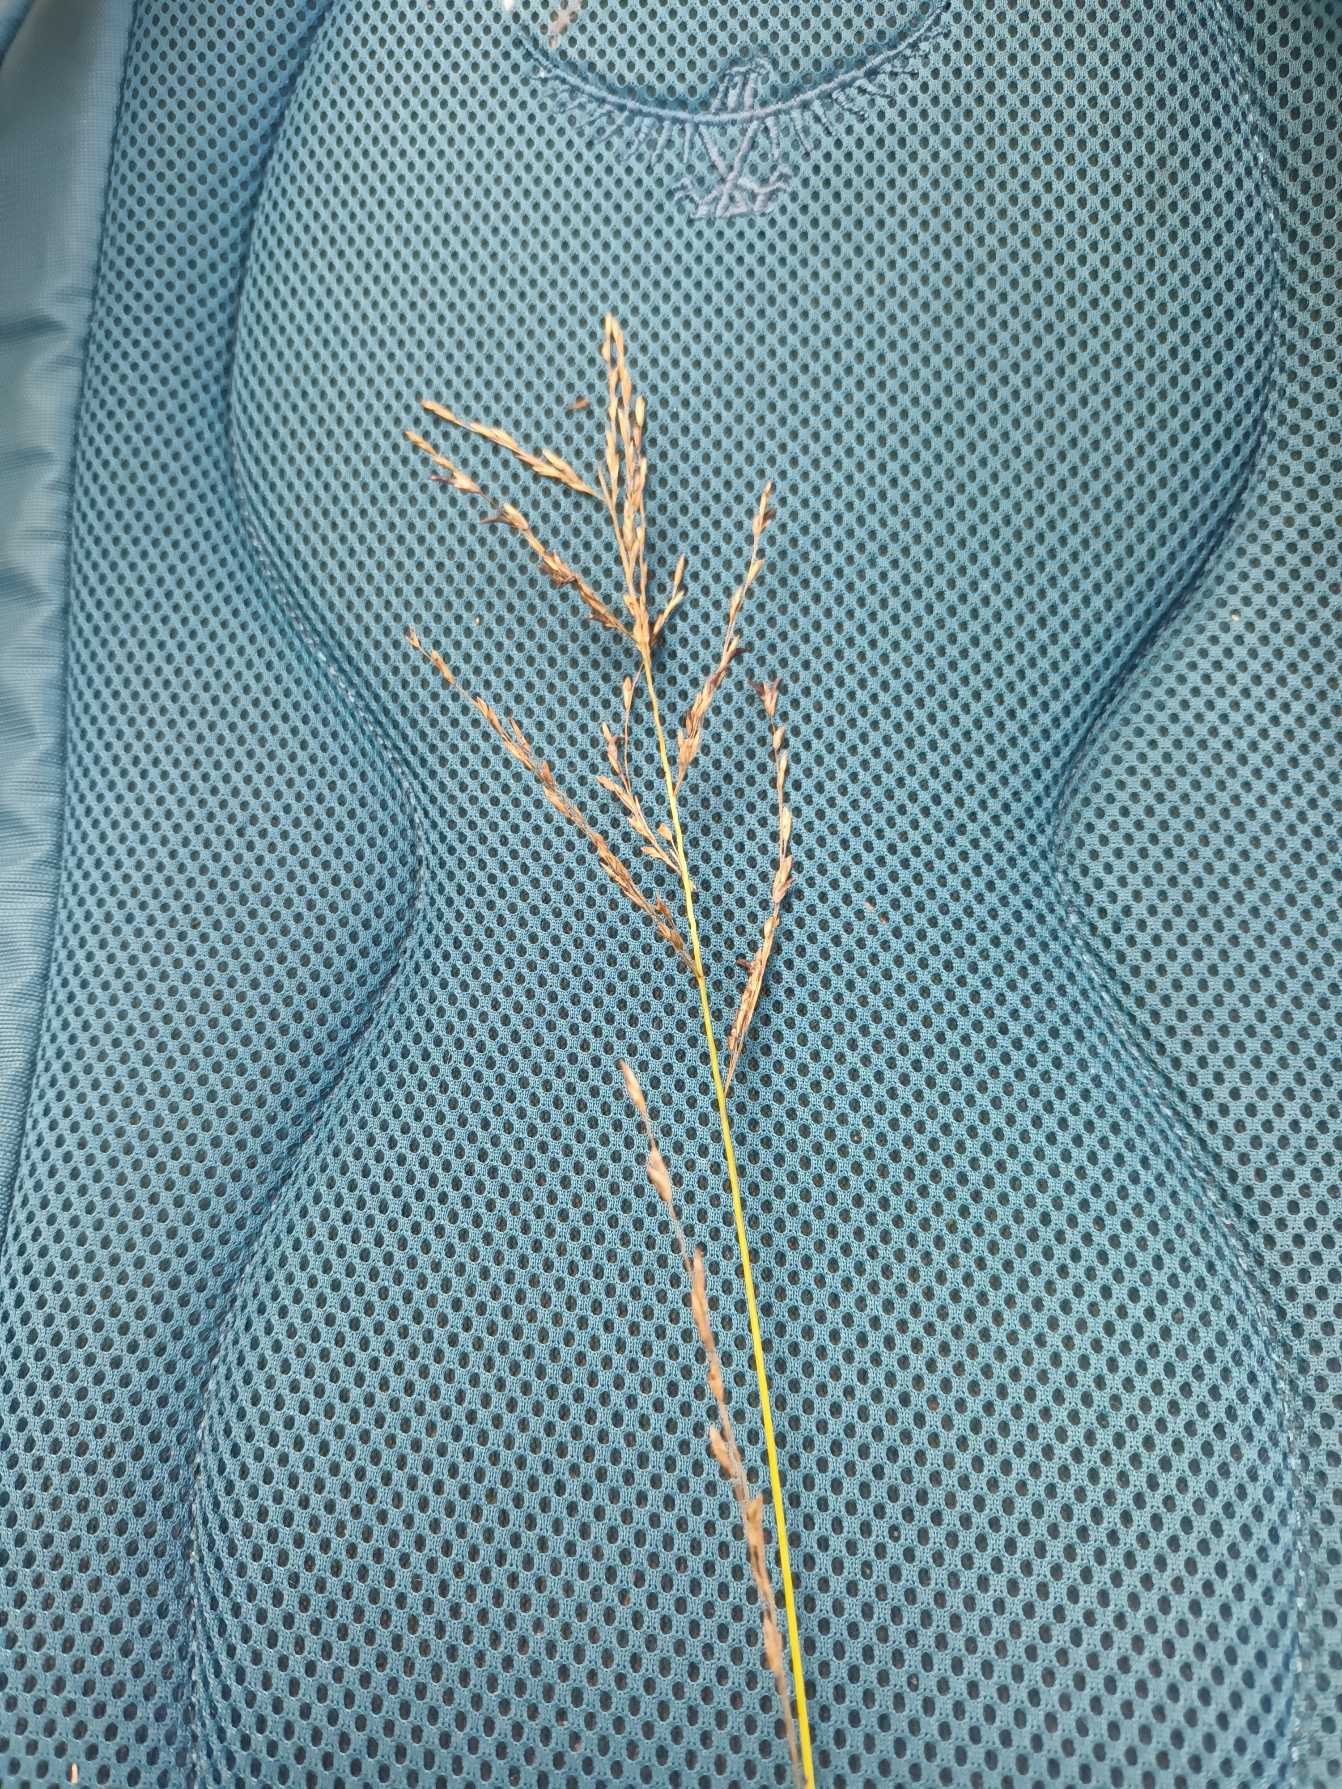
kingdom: Plantae
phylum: Tracheophyta
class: Liliopsida
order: Poales
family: Poaceae
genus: Molinia
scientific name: Molinia caerulea
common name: Blåtop
